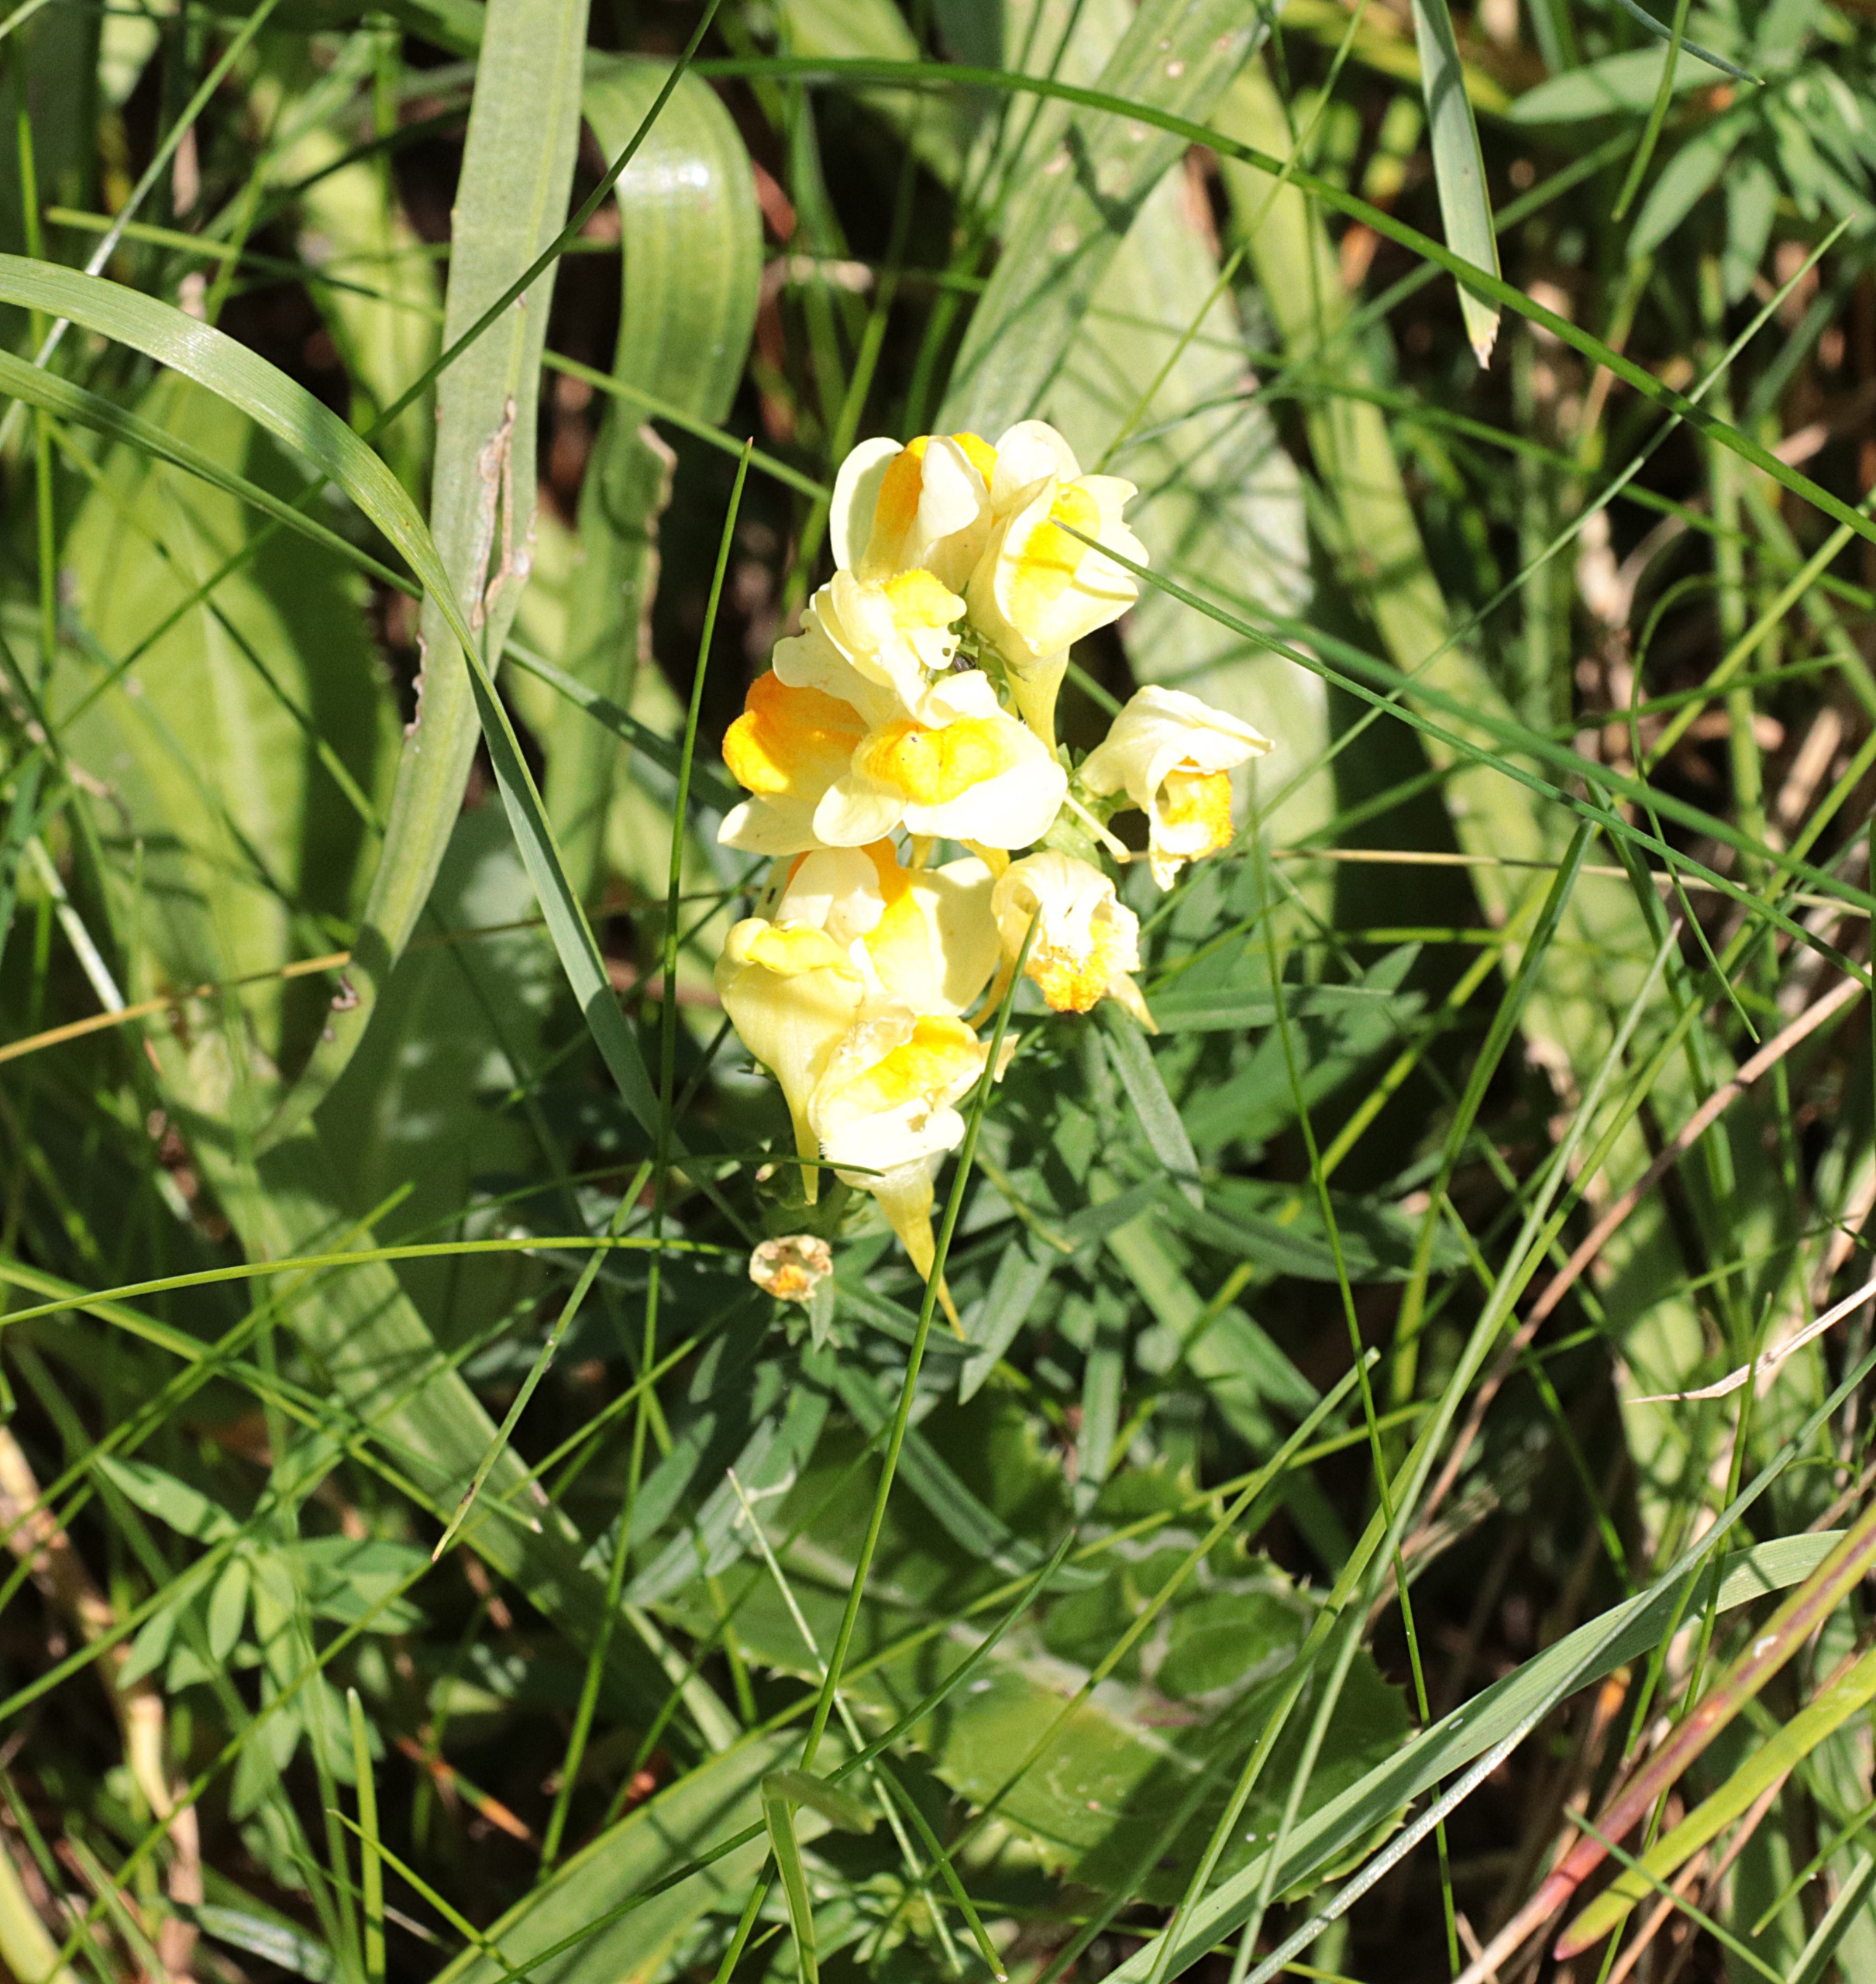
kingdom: Plantae
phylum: Tracheophyta
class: Magnoliopsida
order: Lamiales
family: Plantaginaceae
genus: Linaria
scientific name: Linaria vulgaris
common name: Almindelig torskemund
